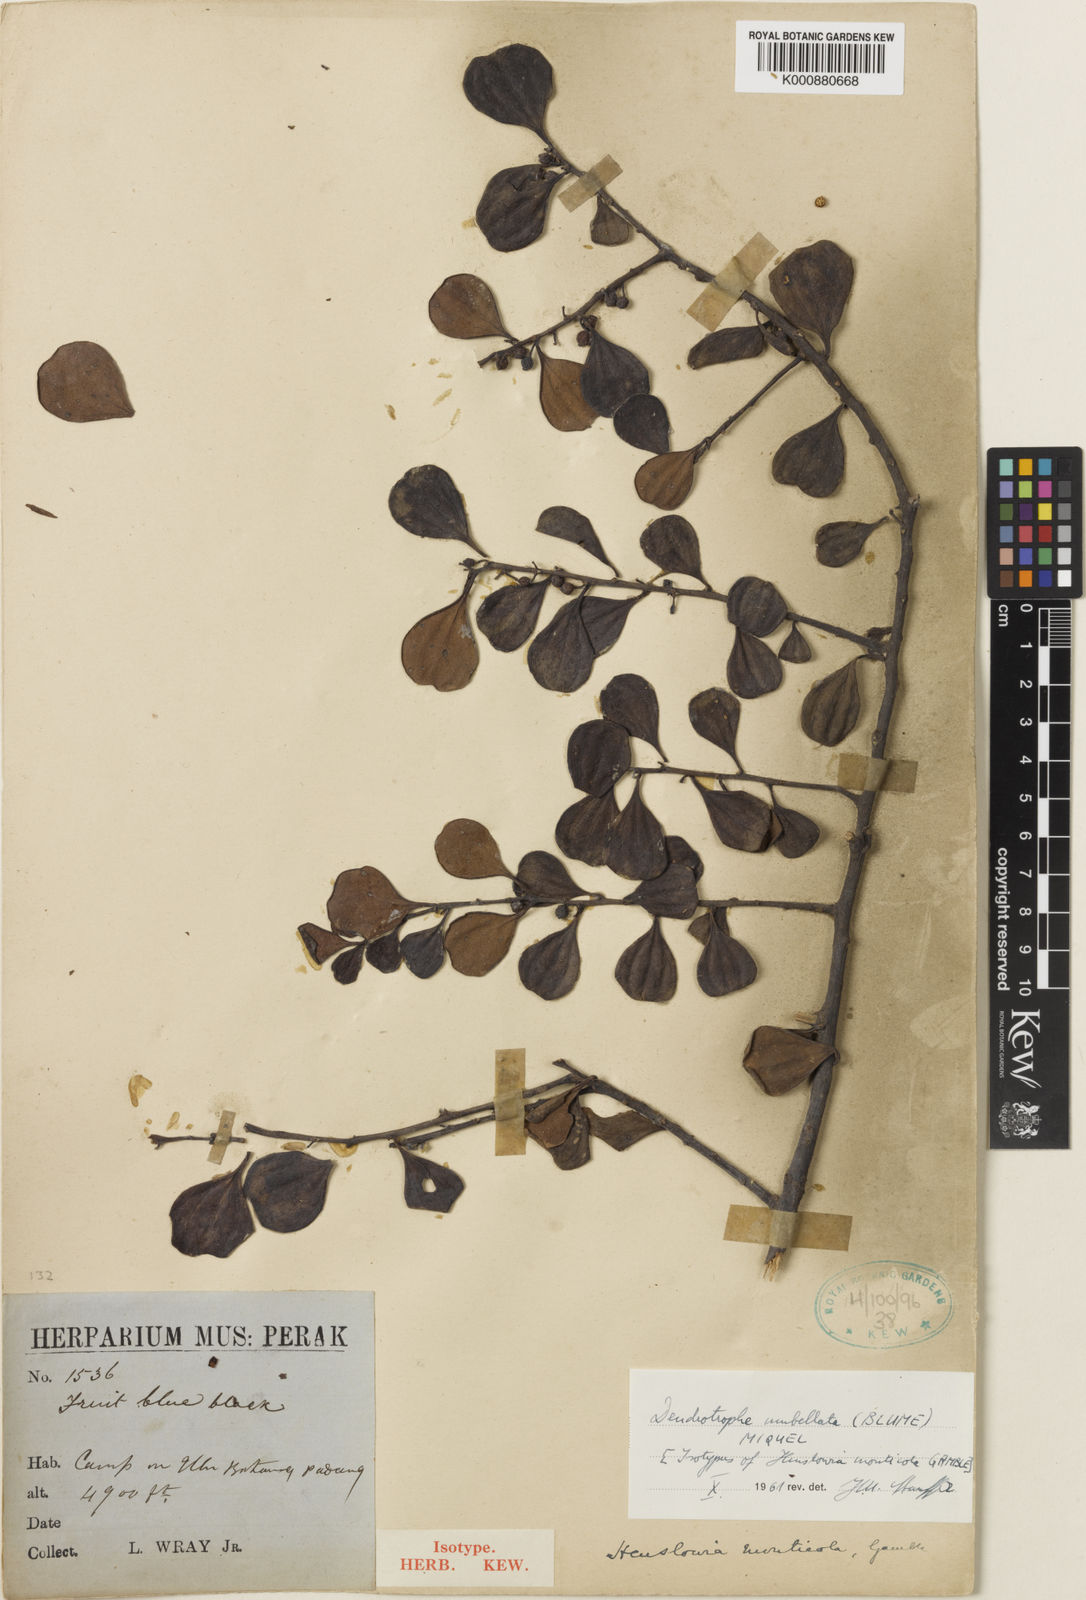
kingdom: Plantae
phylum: Tracheophyta
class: Magnoliopsida
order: Santalales
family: Amphorogynaceae
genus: Dendrotrophe
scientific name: Dendrotrophe umbellata
